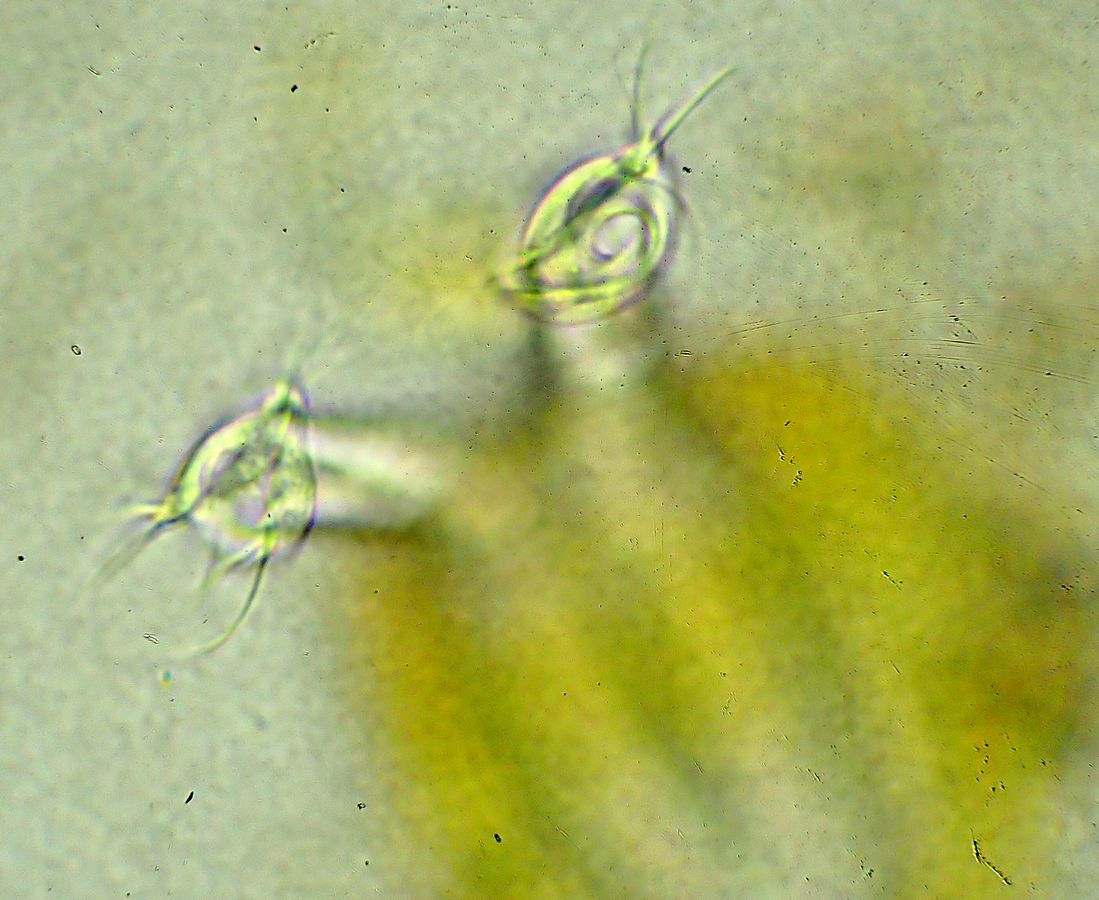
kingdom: Chromista
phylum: Ciliophora
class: Oligohymenophorea
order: Peritrichida
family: Vaginicolidae
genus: Platycola
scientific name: Platycola decumbens
